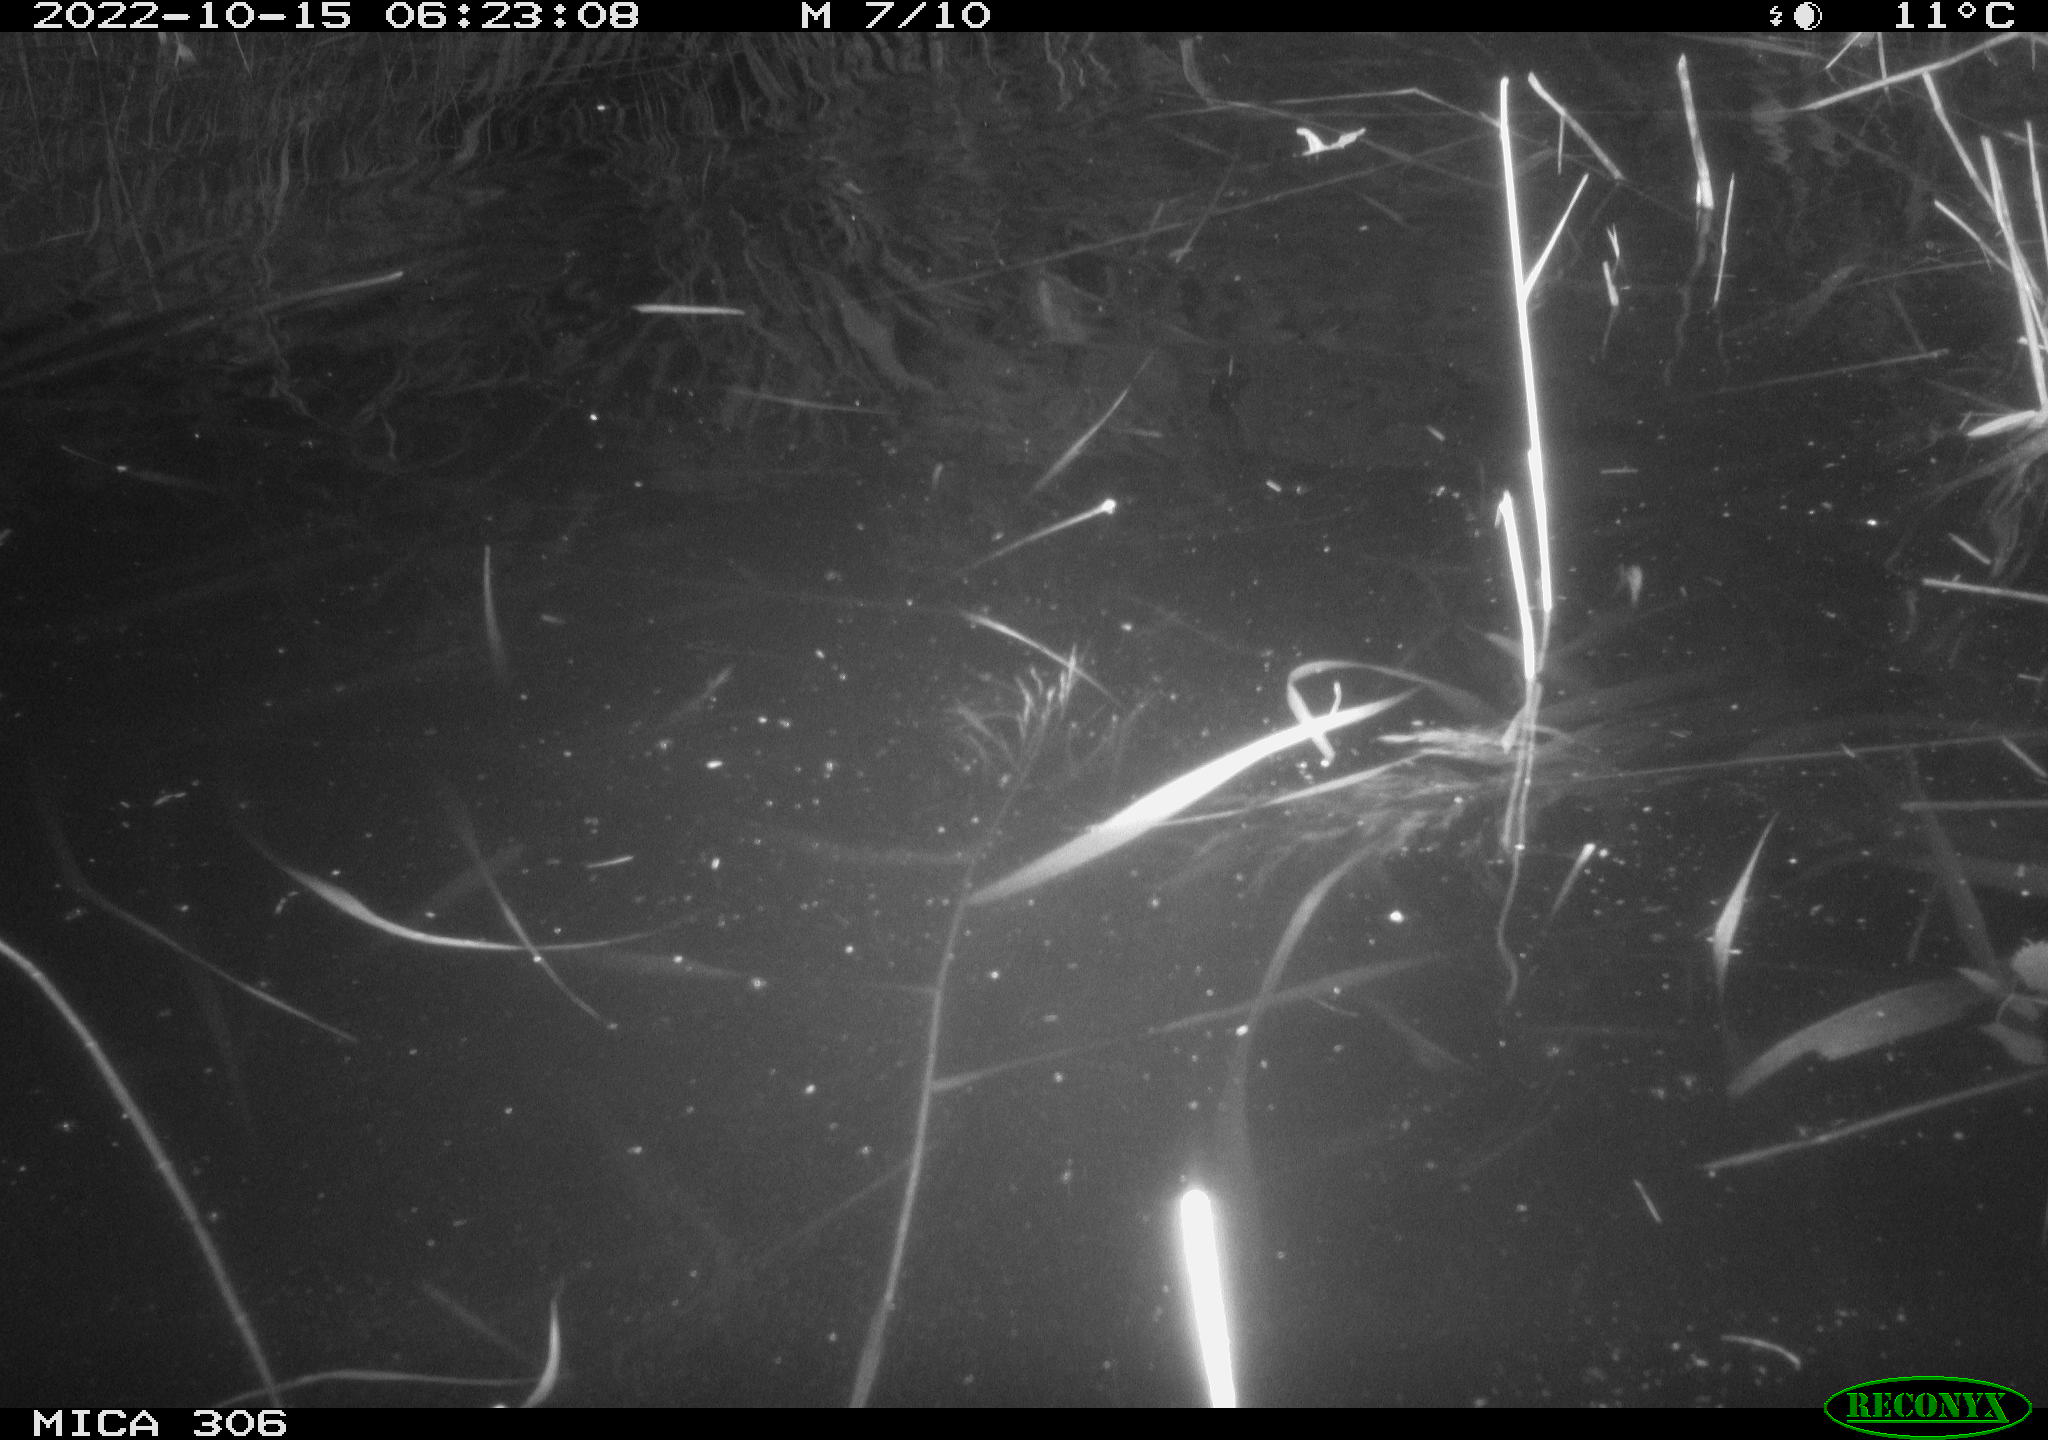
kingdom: Animalia
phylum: Chordata
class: Mammalia
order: Rodentia
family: Muridae
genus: Rattus
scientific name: Rattus norvegicus
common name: Brown rat
